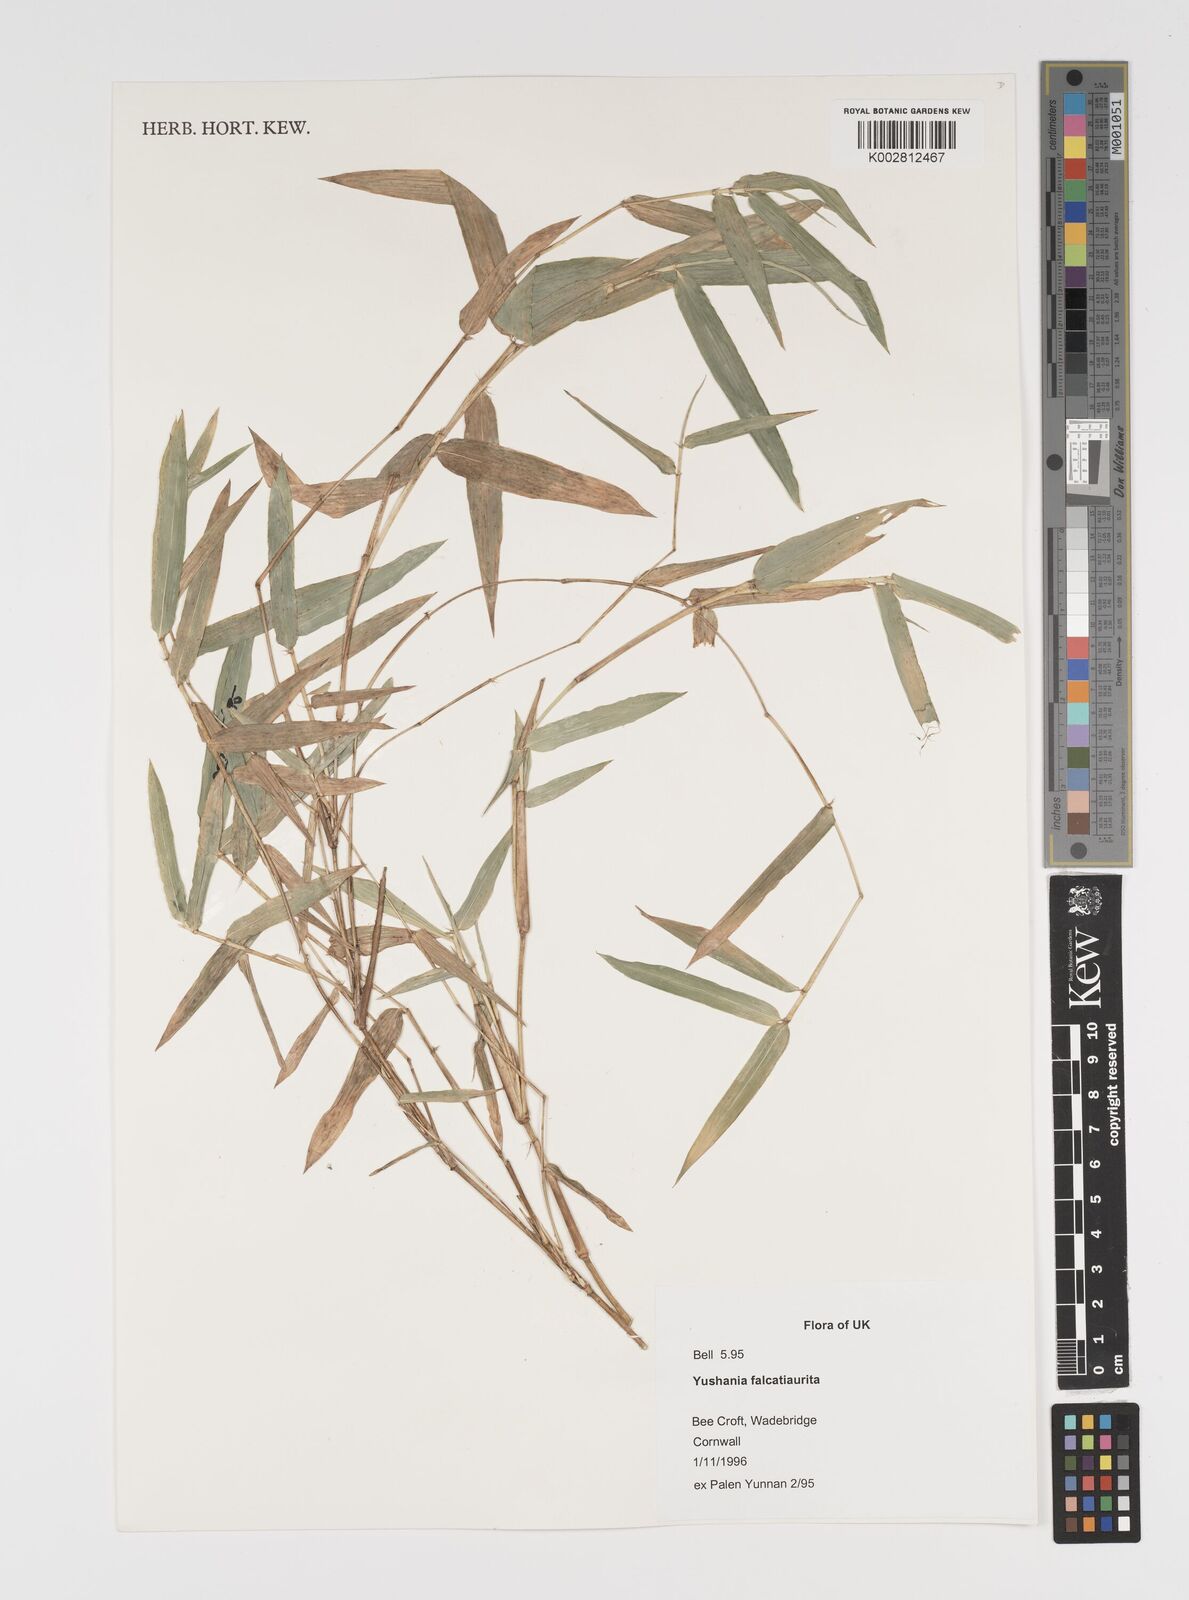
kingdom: Plantae
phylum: Tracheophyta
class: Liliopsida
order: Poales
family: Poaceae
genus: Yushania
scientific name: Yushania falcatiaurita
